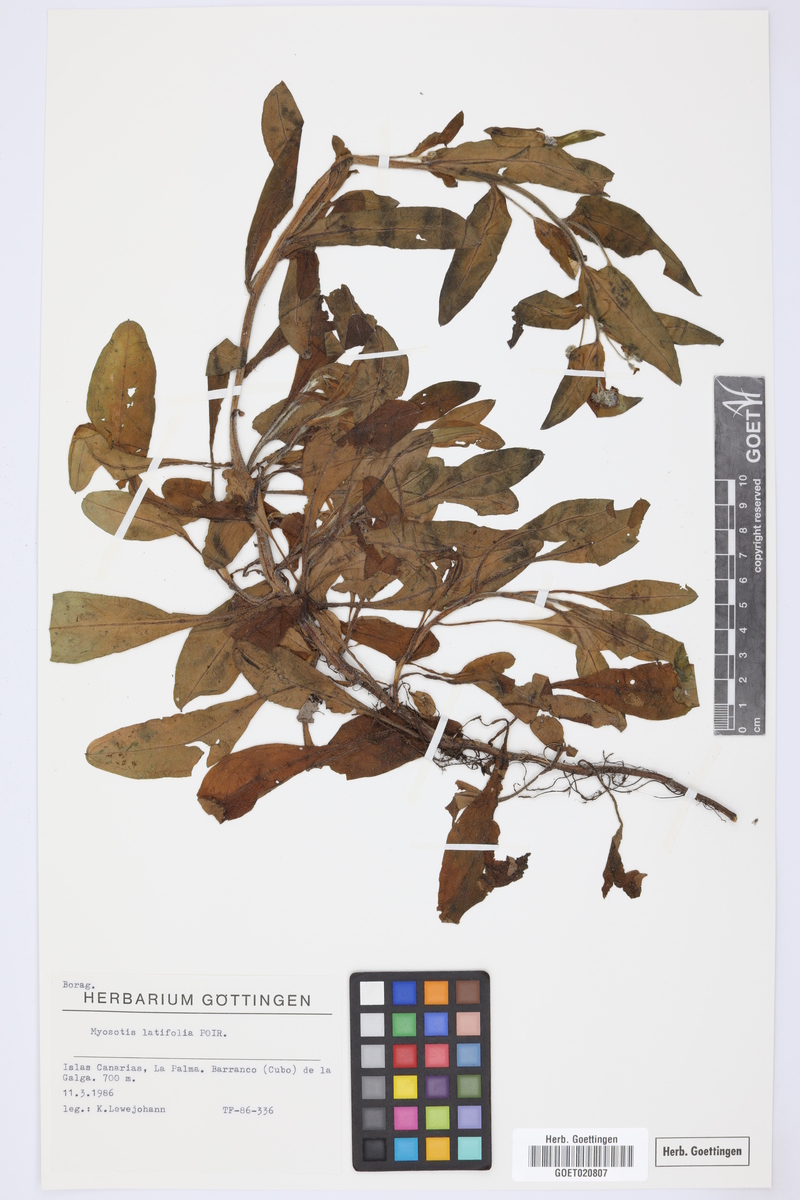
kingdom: Plantae
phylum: Tracheophyta
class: Magnoliopsida
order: Boraginales
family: Boraginaceae
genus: Myosotis
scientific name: Myosotis latifolia
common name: Broadleaf forget-me-not
